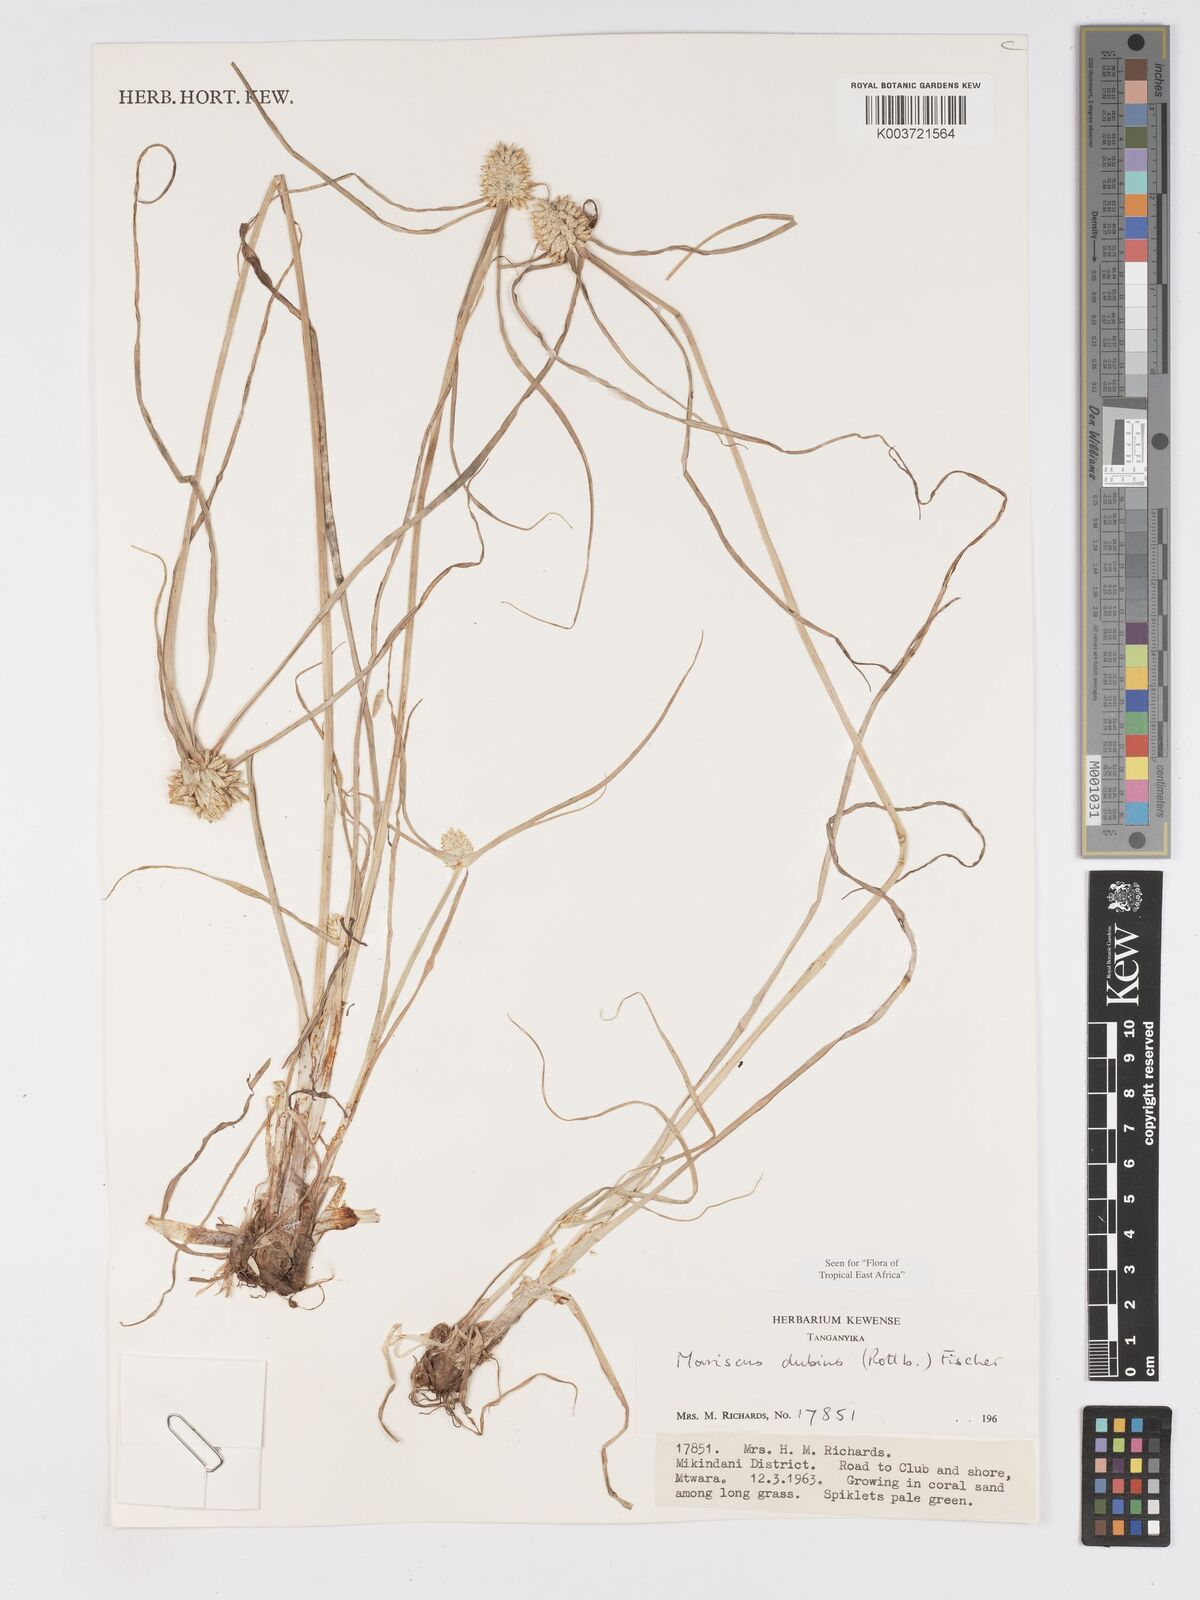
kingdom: Plantae
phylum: Tracheophyta
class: Liliopsida
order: Poales
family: Cyperaceae
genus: Cyperus
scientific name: Cyperus dubius
